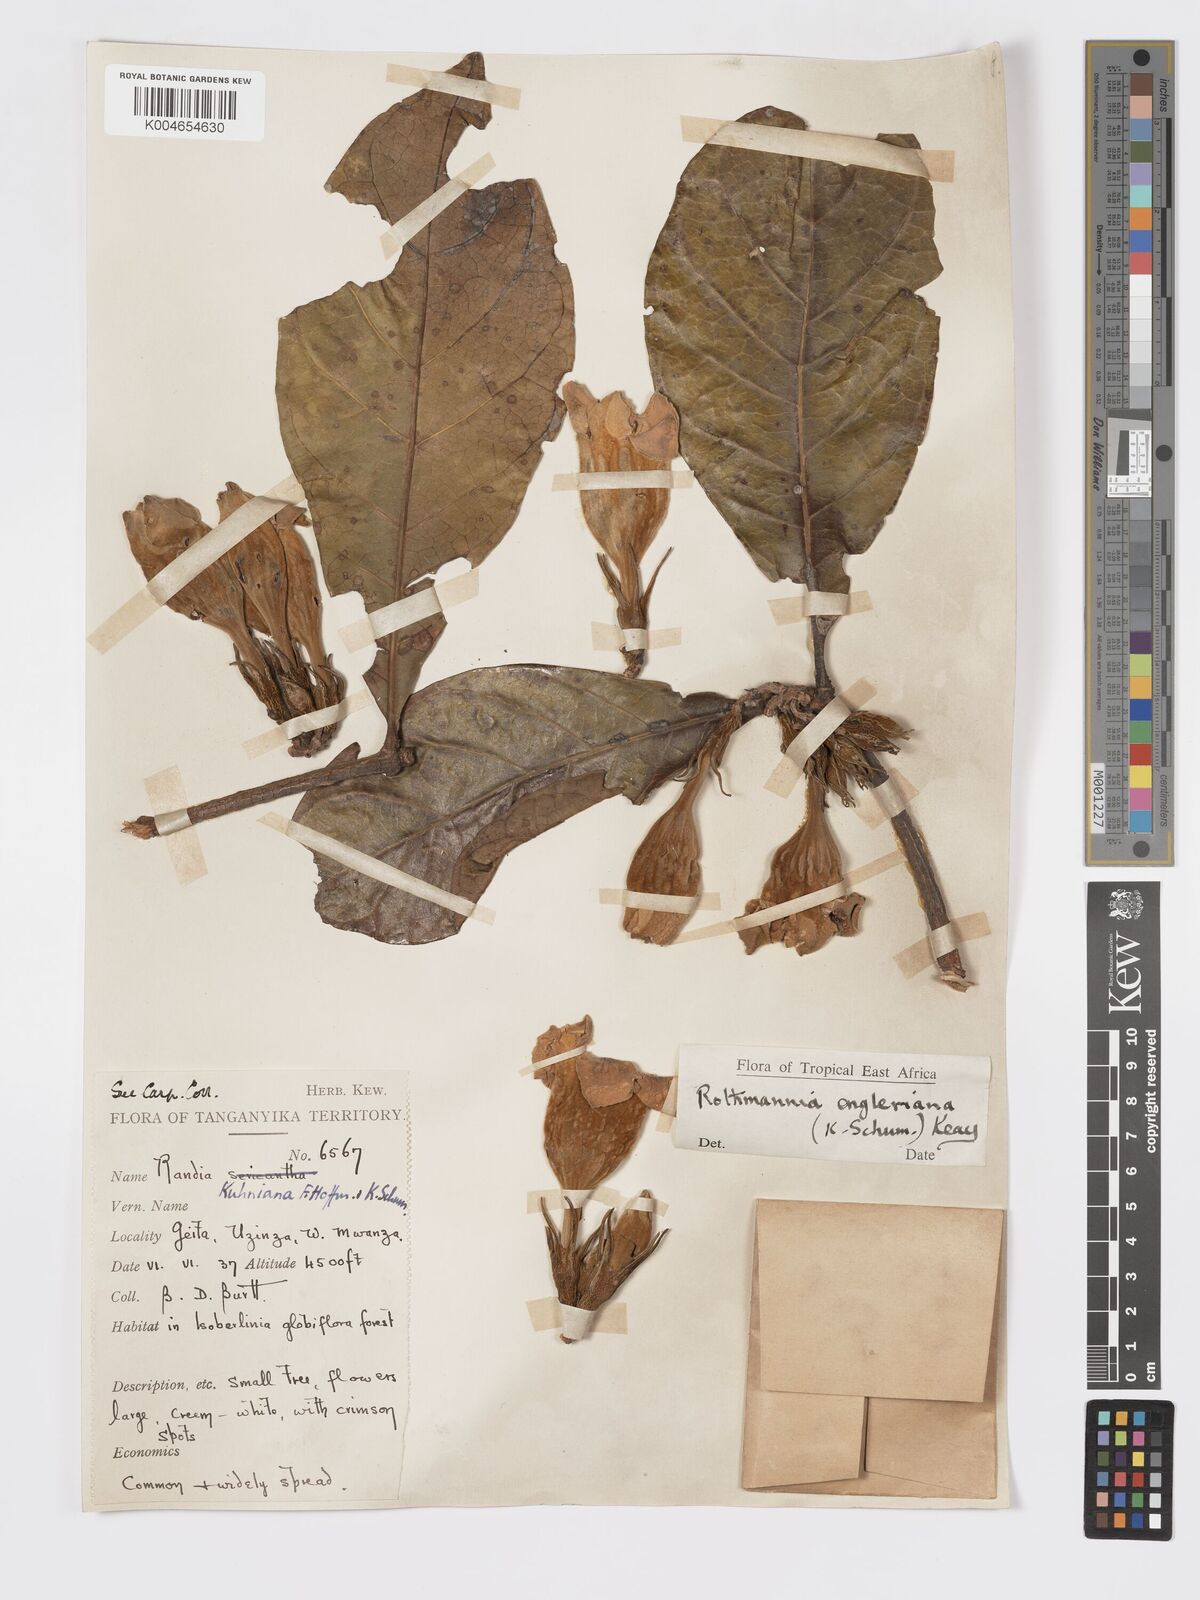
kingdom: Plantae
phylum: Tracheophyta
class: Magnoliopsida
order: Gentianales
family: Rubiaceae
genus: Rothmannia
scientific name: Rothmannia engleriana
